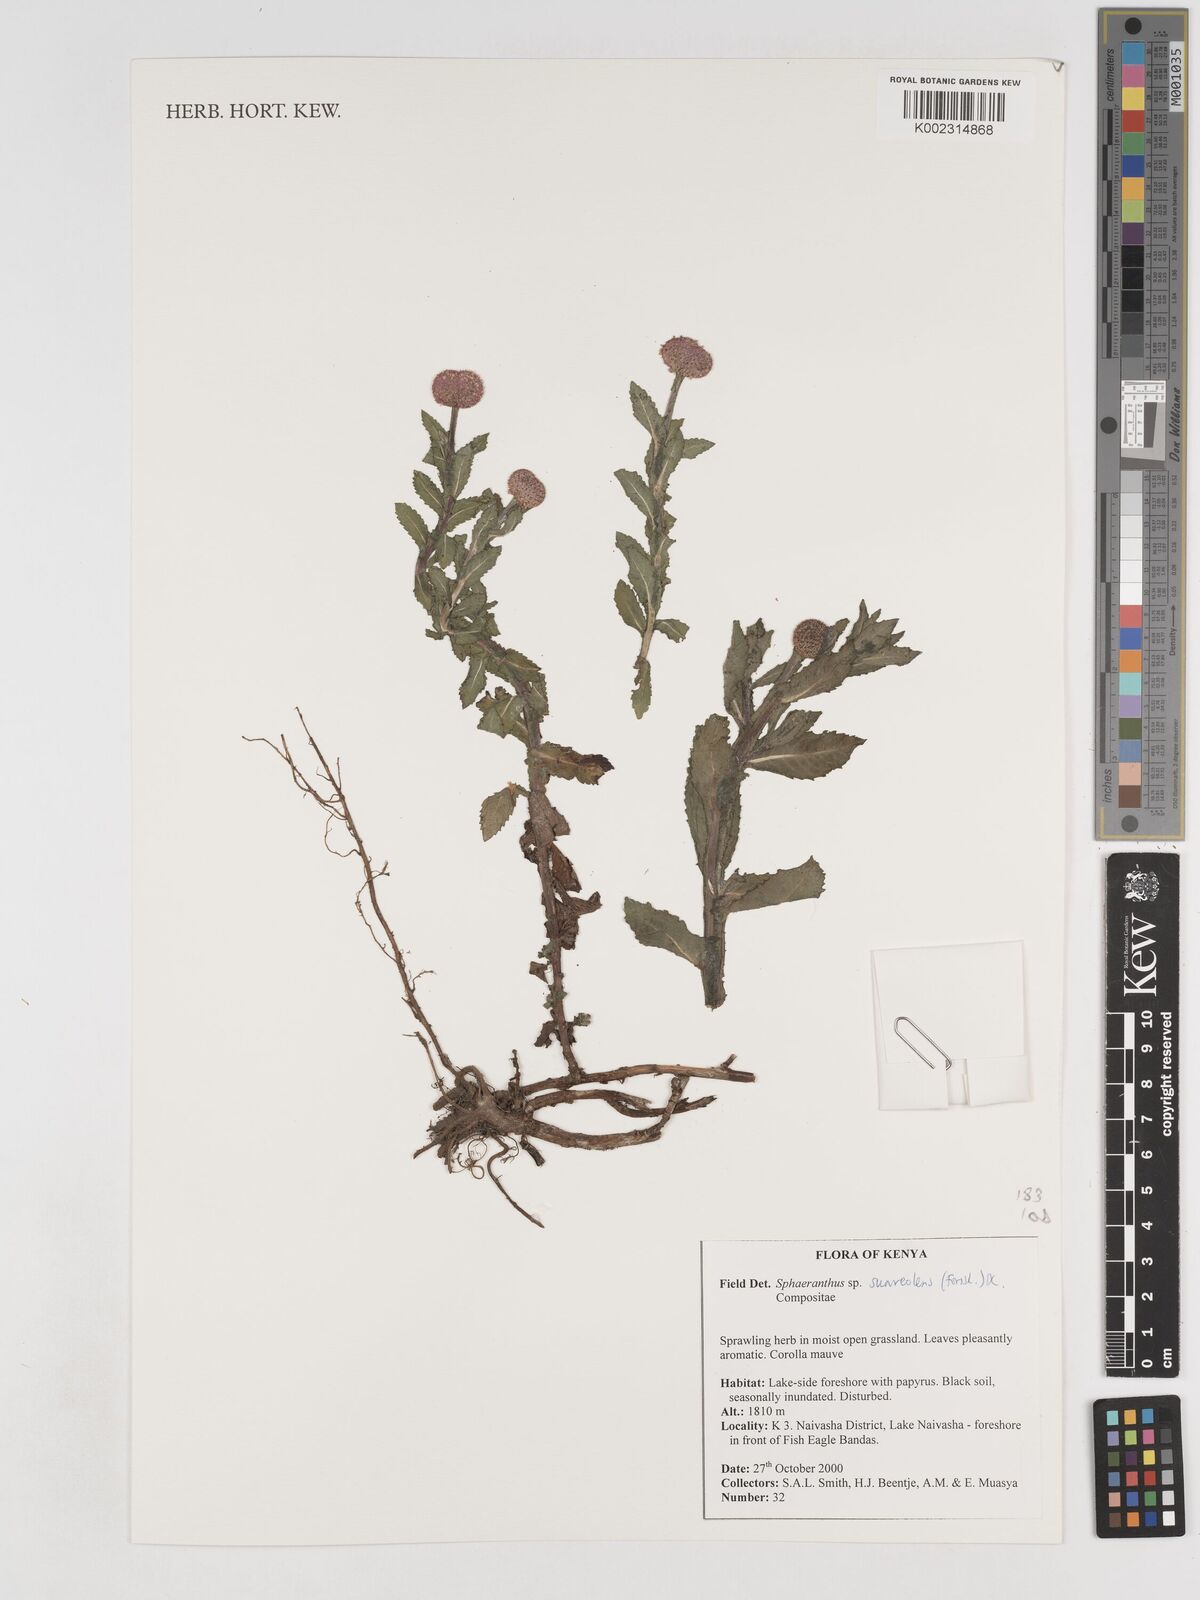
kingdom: Plantae
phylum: Tracheophyta
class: Magnoliopsida
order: Asterales
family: Asteraceae
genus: Sphaeranthus
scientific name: Sphaeranthus suaveolens
